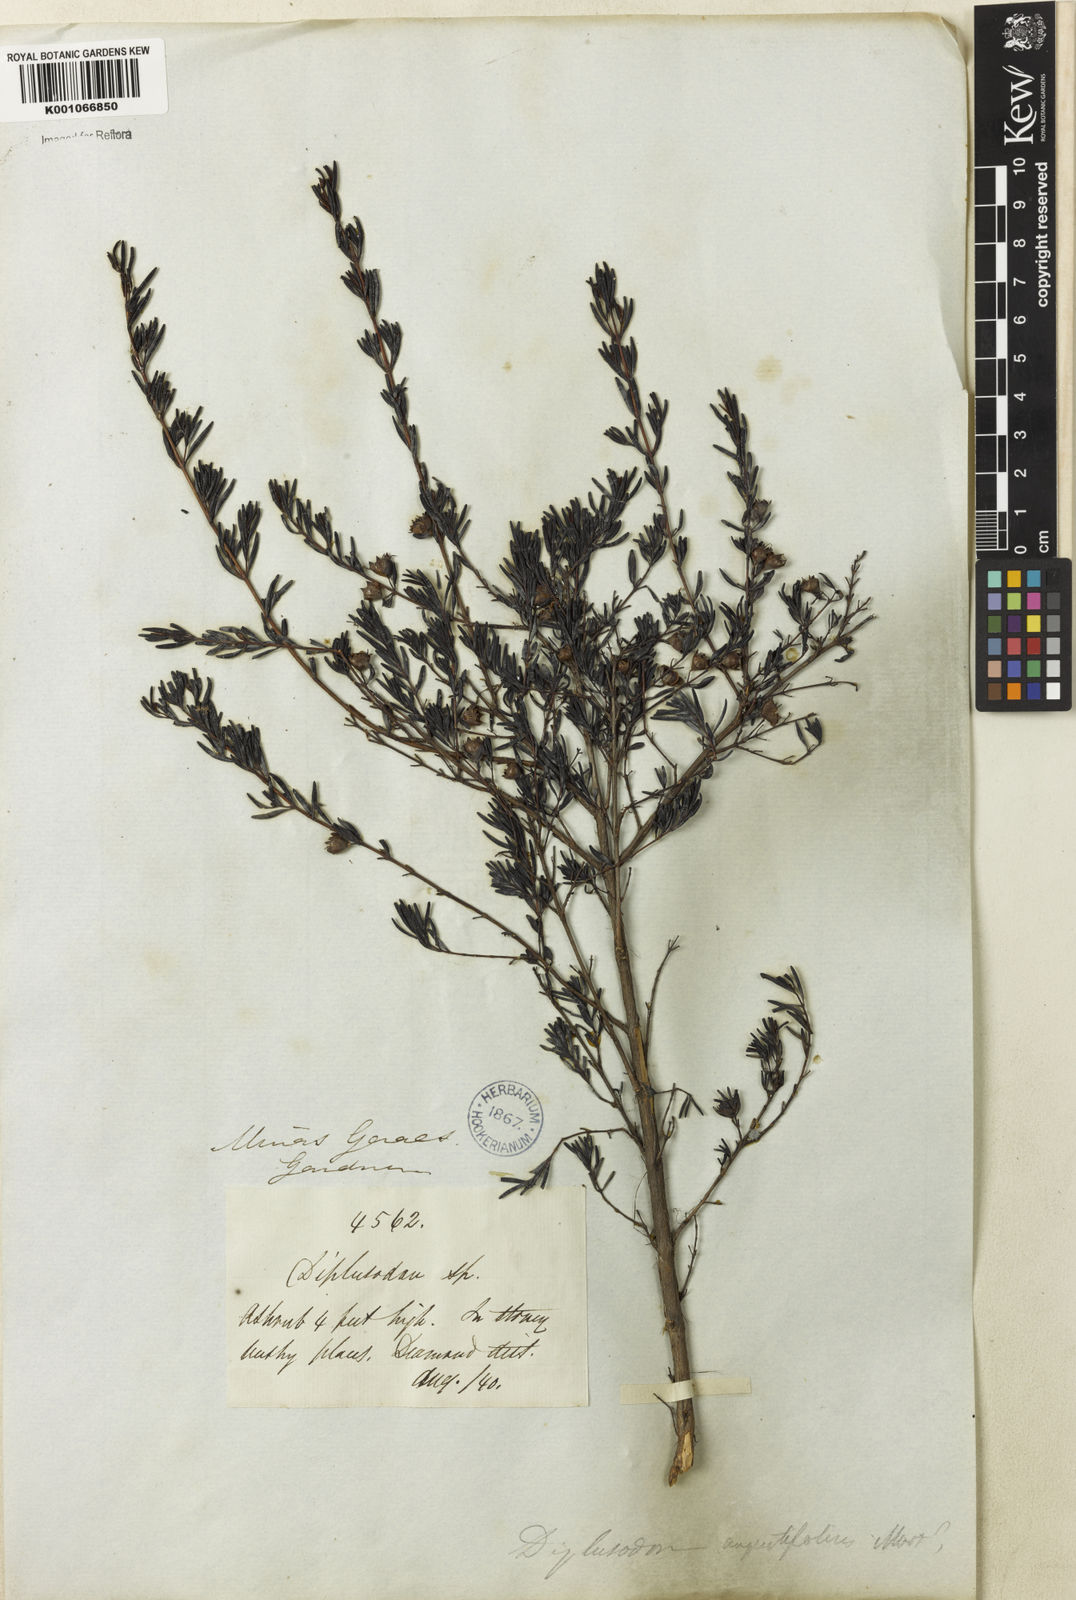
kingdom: Plantae
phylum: Tracheophyta
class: Magnoliopsida
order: Myrtales
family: Lythraceae
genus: Diplusodon
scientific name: Diplusodon hexander
